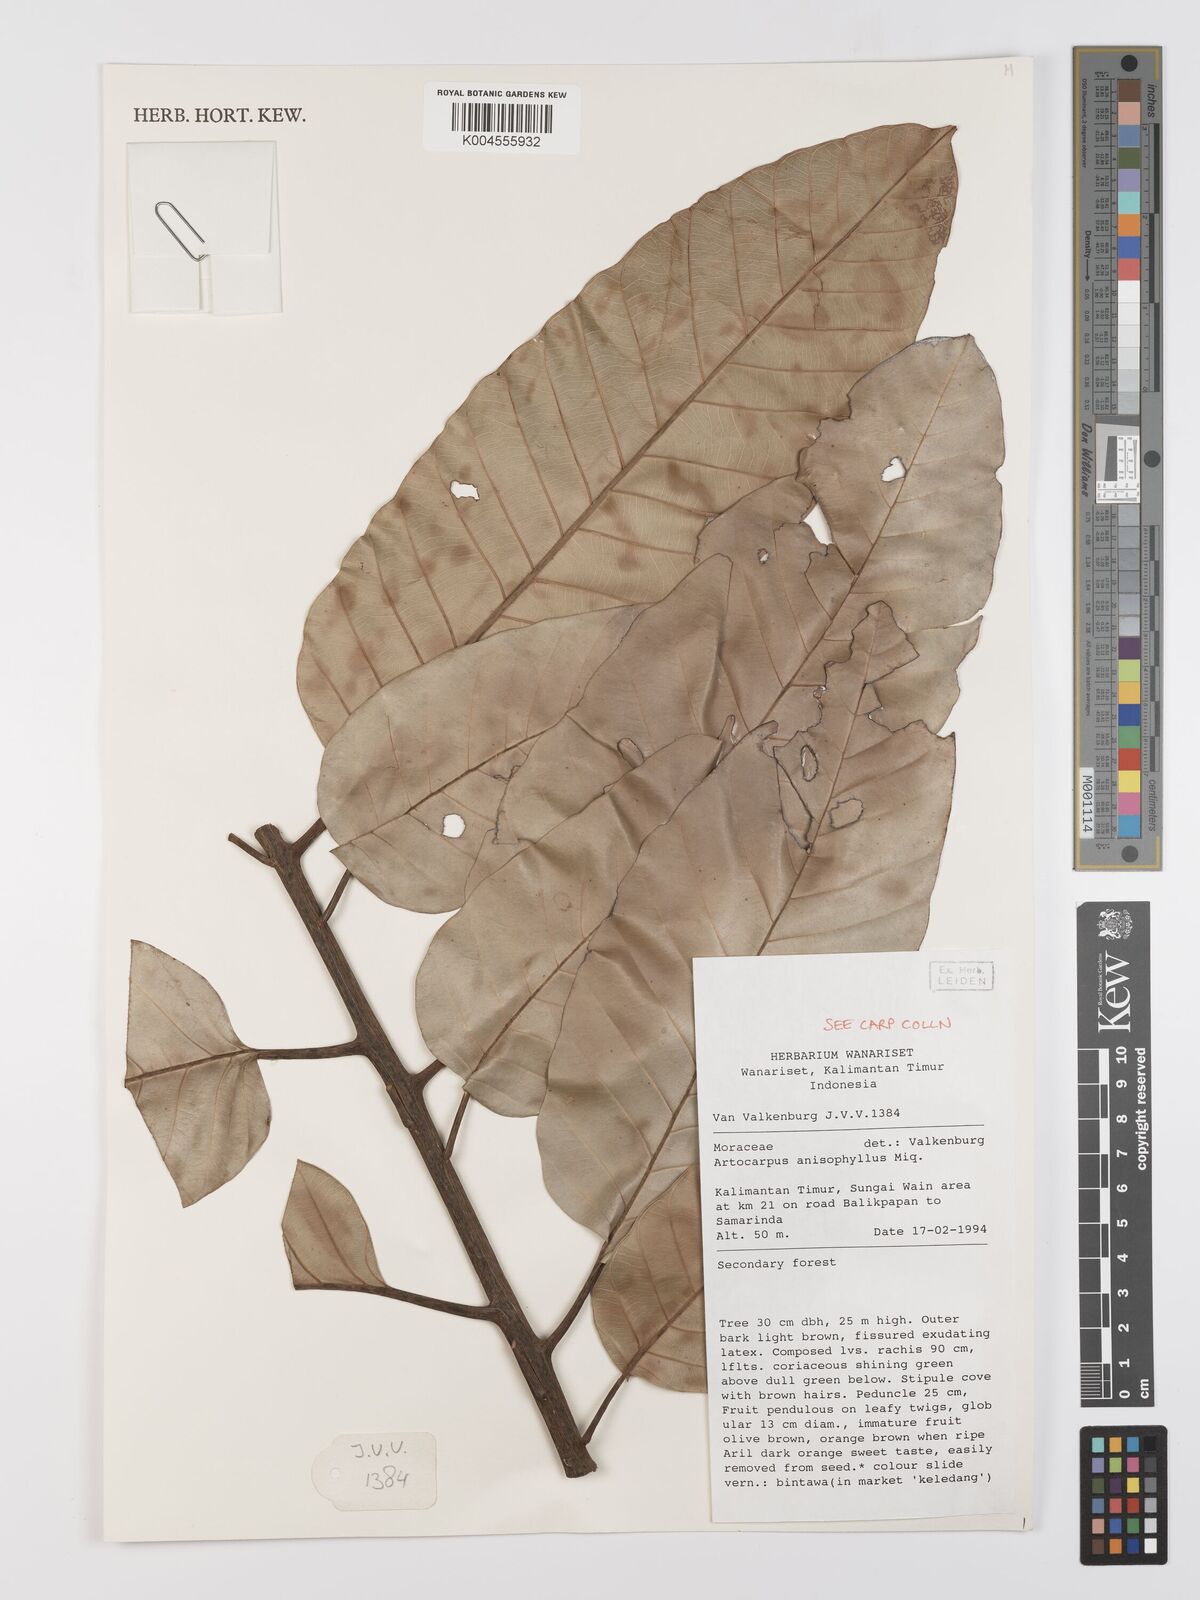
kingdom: Plantae
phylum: Tracheophyta
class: Magnoliopsida
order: Rosales
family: Moraceae
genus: Artocarpus
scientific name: Artocarpus anisophyllus
